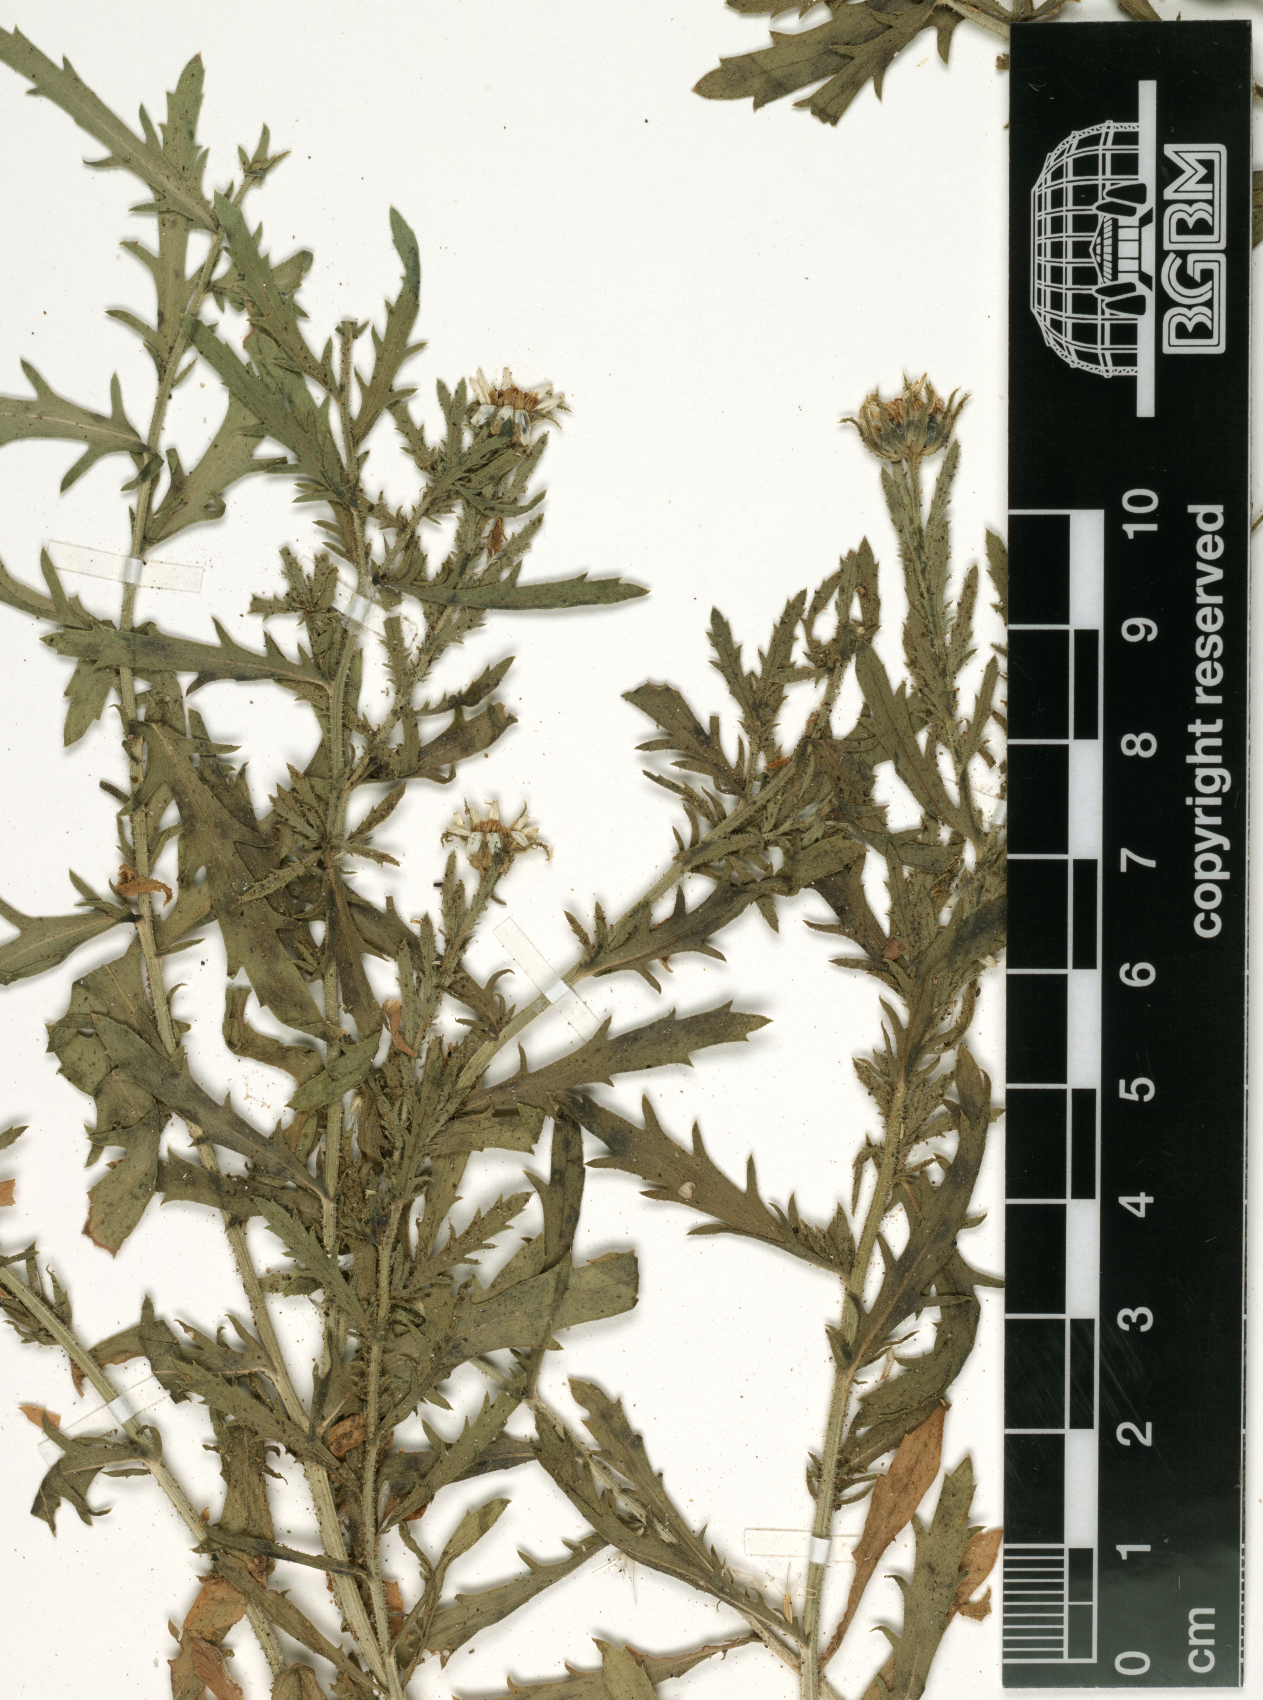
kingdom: Plantae
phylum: Tracheophyta
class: Magnoliopsida
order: Asterales
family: Asteraceae
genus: Osteospermum
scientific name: Osteospermum muricatum
